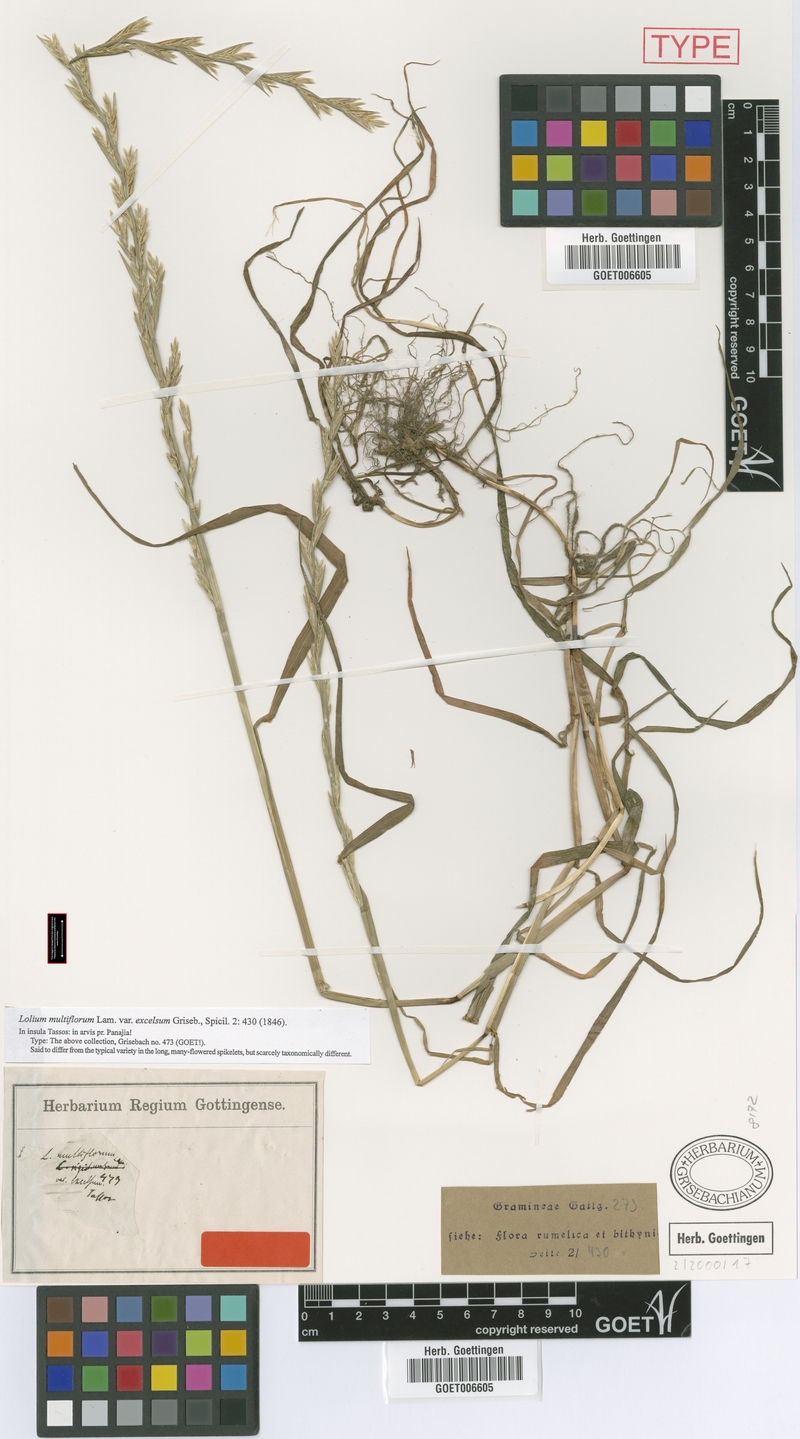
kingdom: Plantae
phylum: Tracheophyta
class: Liliopsida
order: Poales
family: Poaceae
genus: Lolium
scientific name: Lolium multiflorum
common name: Annual ryegrass
